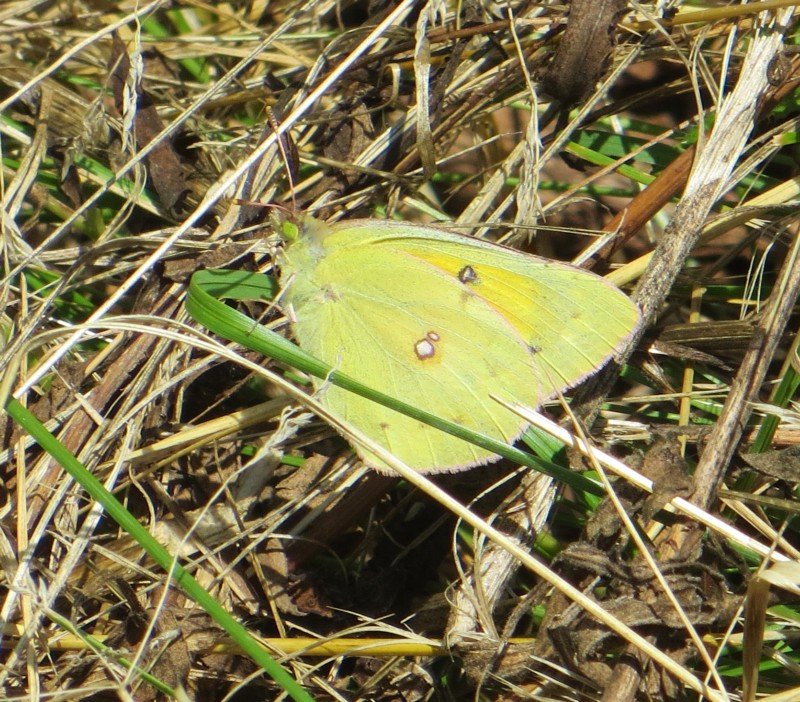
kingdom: Animalia
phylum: Arthropoda
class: Insecta
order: Lepidoptera
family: Pieridae
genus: Colias
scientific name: Colias eurytheme
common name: Orange Sulphur
